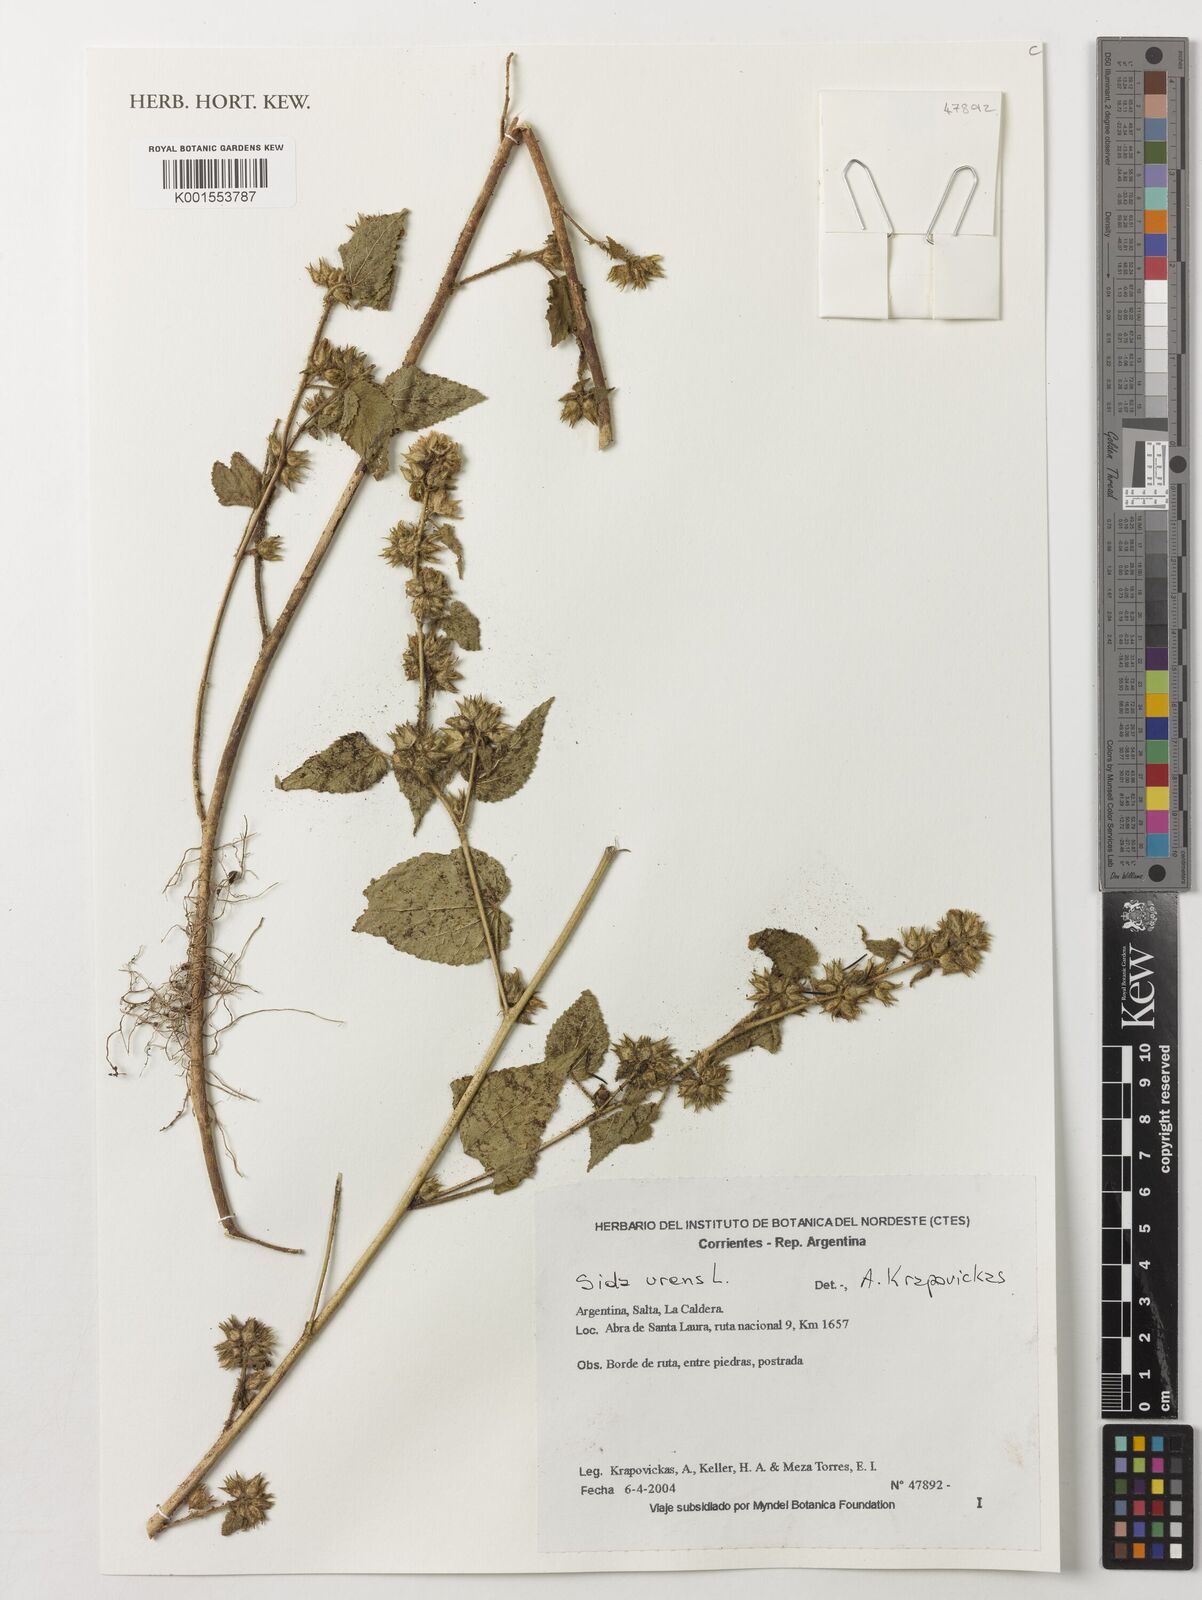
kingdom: Plantae
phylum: Tracheophyta
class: Magnoliopsida
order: Malvales
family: Malvaceae
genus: Sida
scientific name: Sida urens
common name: Tropical fanpetals
